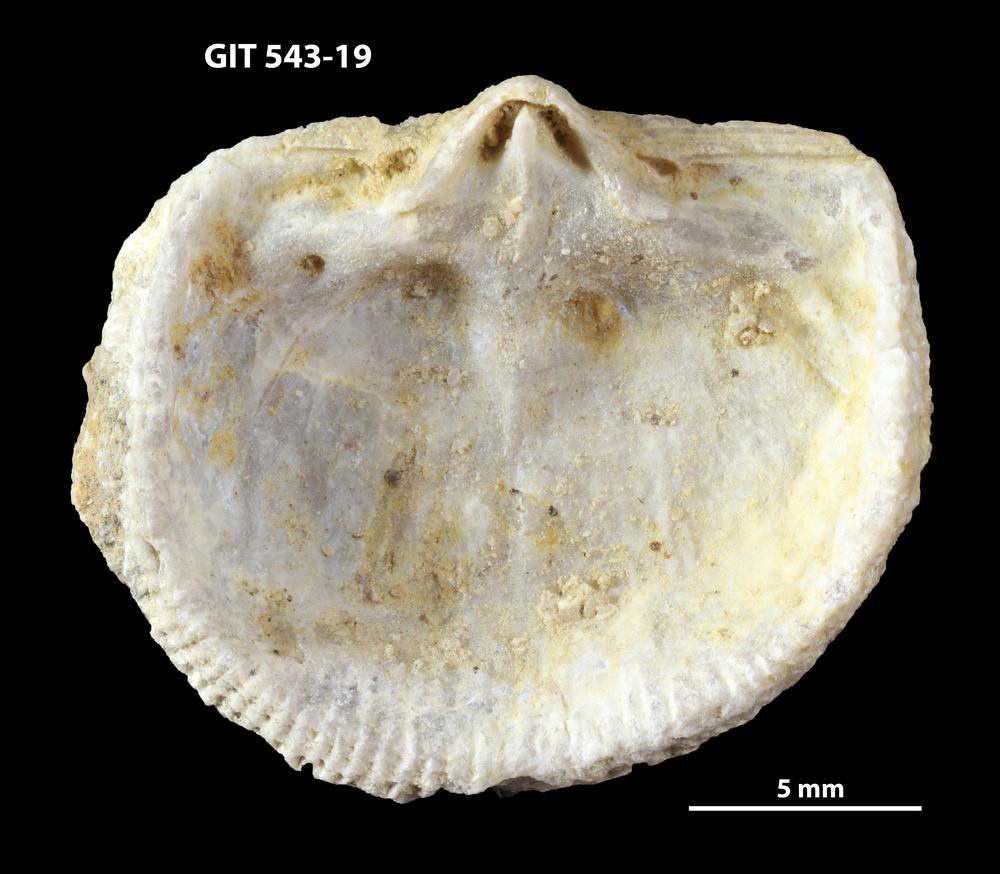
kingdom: Animalia
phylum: Brachiopoda
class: Rhynchonellata
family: Clitambonitidae
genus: Clitambonites
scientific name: Clitambonites
